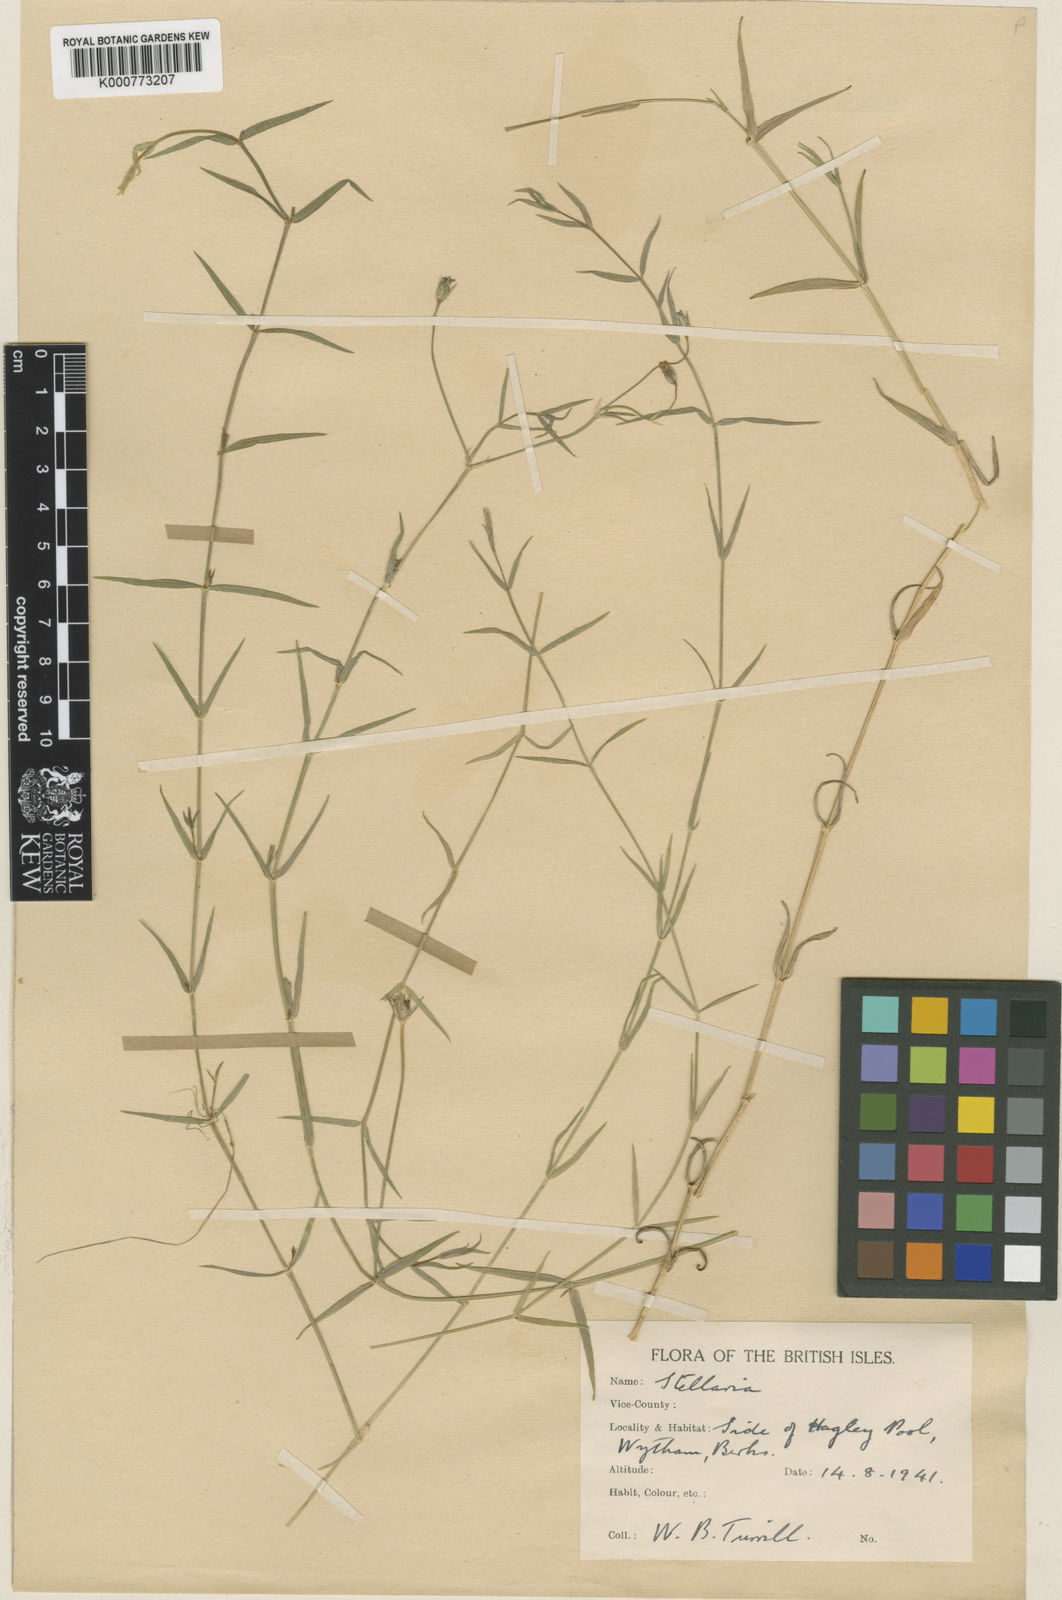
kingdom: Plantae
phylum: Tracheophyta
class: Magnoliopsida
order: Caryophyllales
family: Caryophyllaceae
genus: Stellaria
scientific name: Stellaria
